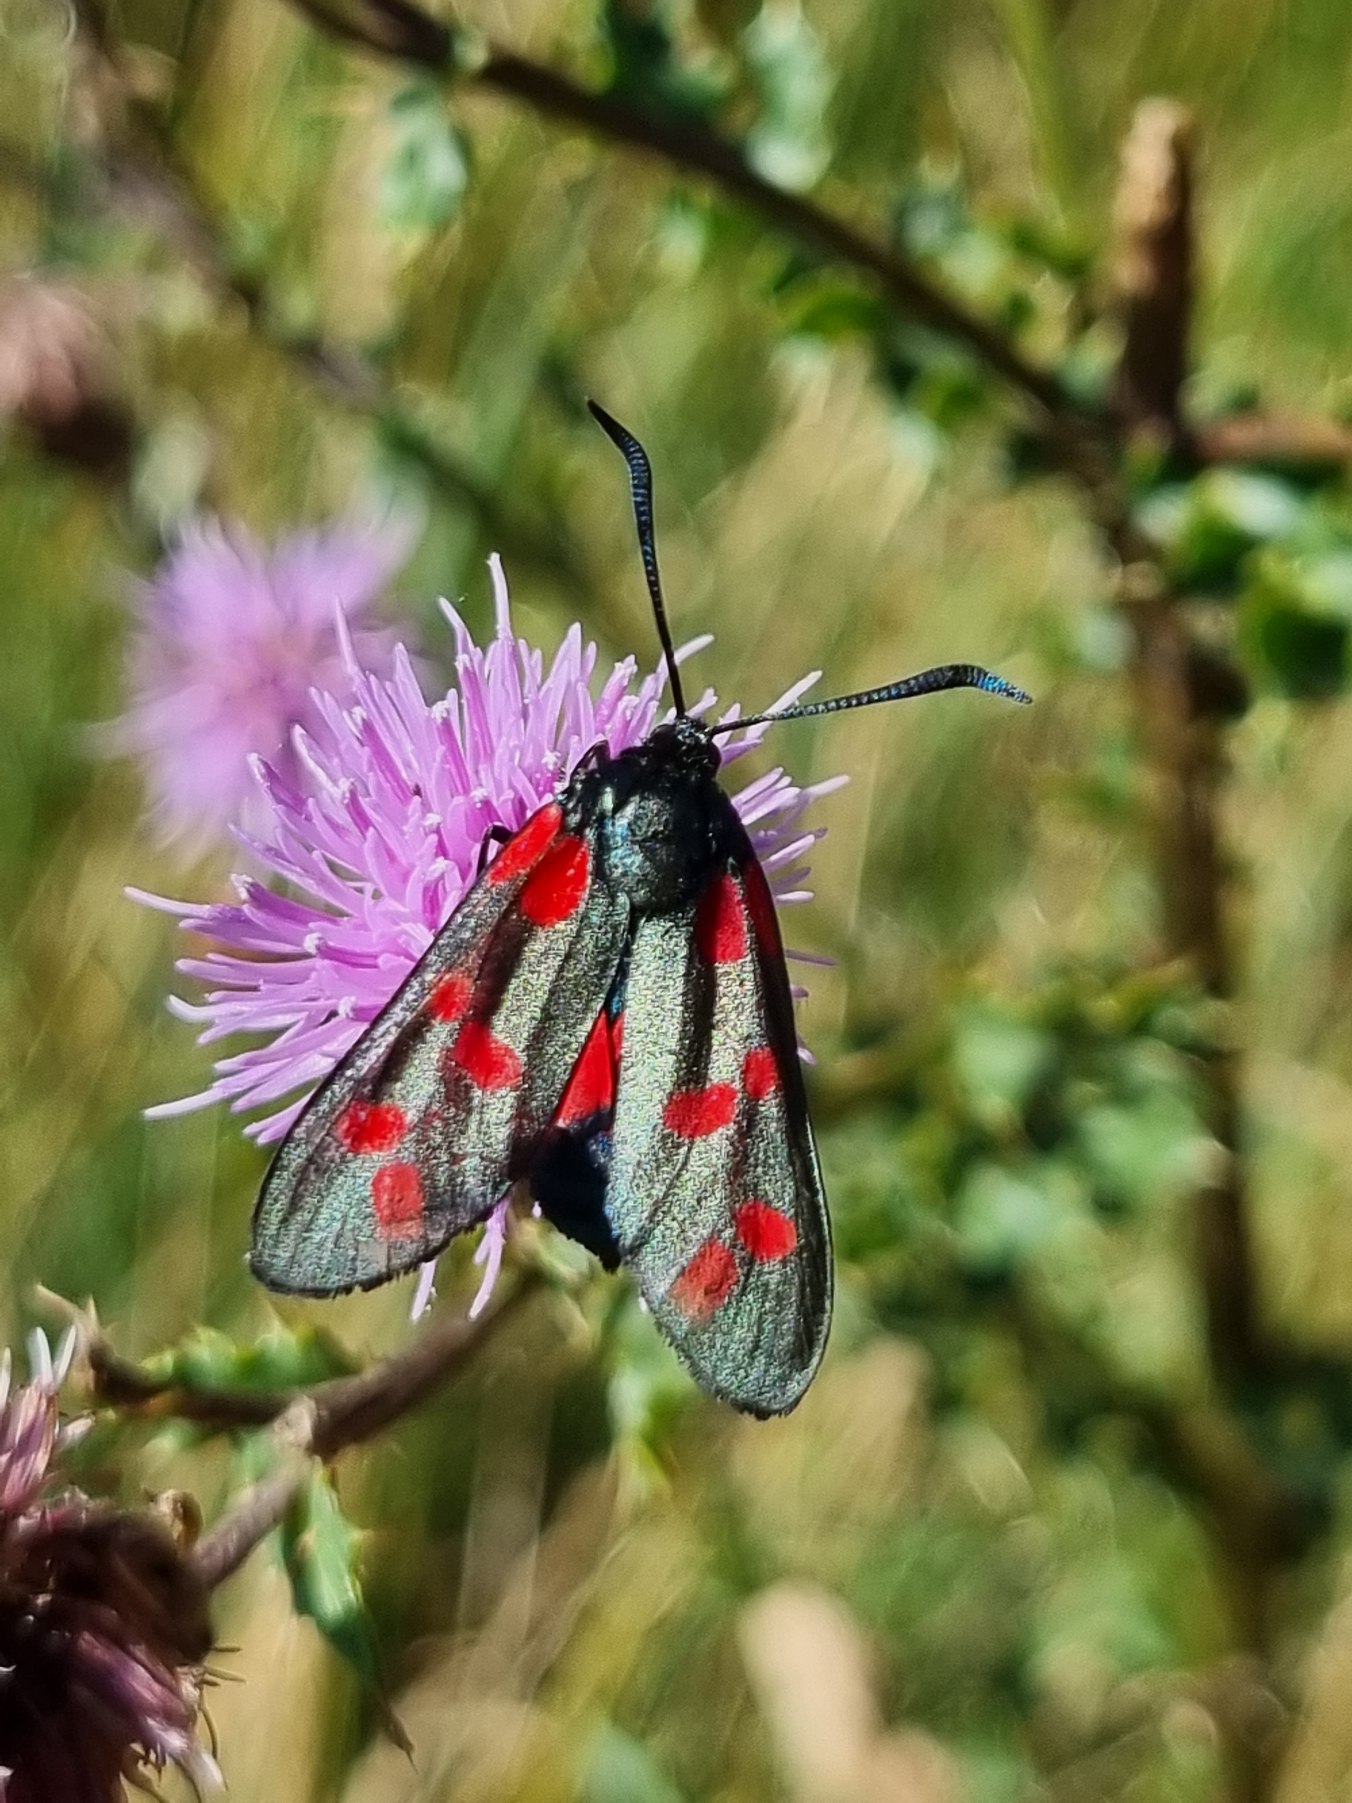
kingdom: Animalia
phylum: Arthropoda
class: Insecta
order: Lepidoptera
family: Zygaenidae
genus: Zygaena
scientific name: Zygaena filipendulae
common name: Seksplettet køllesværmer
